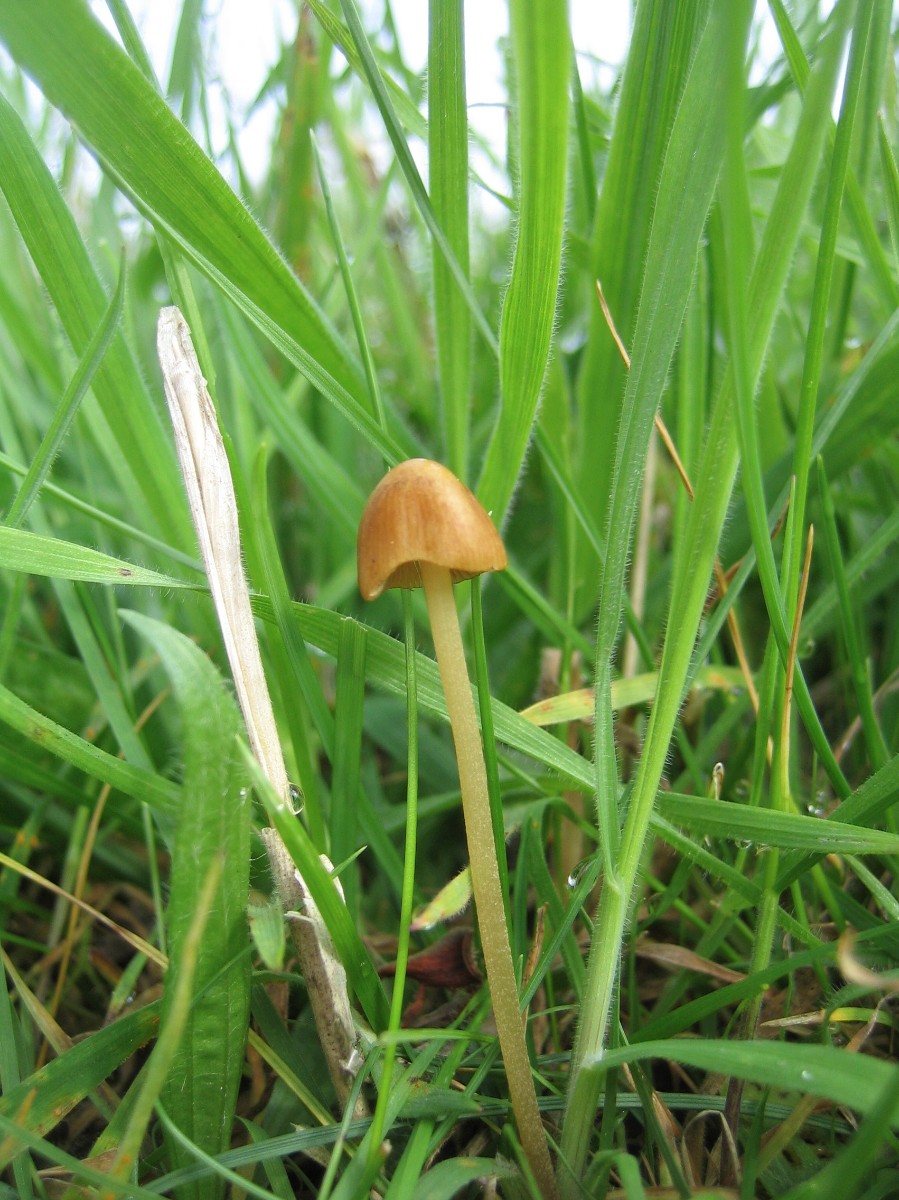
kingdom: Fungi
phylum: Basidiomycota
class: Agaricomycetes
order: Agaricales
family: Bolbitiaceae
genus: Conocybe
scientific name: Conocybe
